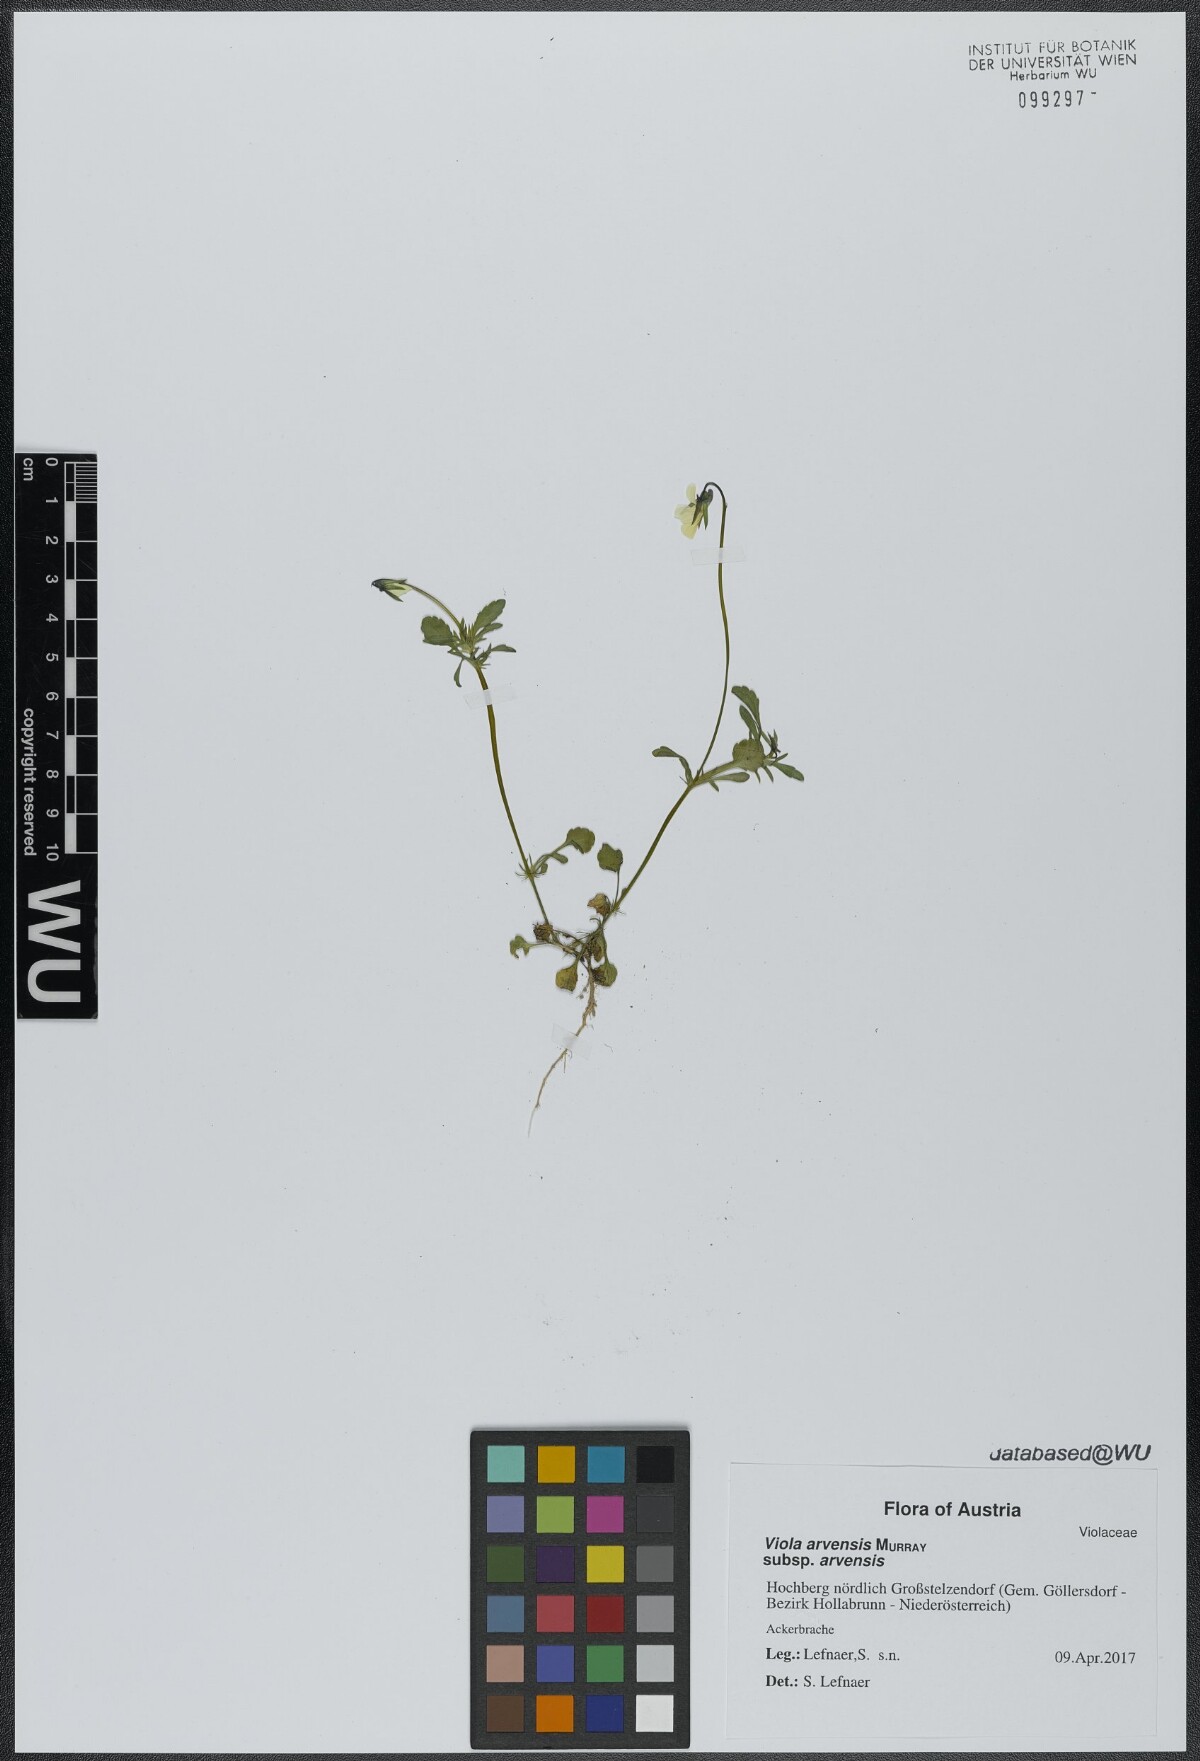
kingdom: Plantae
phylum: Tracheophyta
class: Magnoliopsida
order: Malpighiales
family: Violaceae
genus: Viola
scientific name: Viola arvensis
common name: Field pansy
